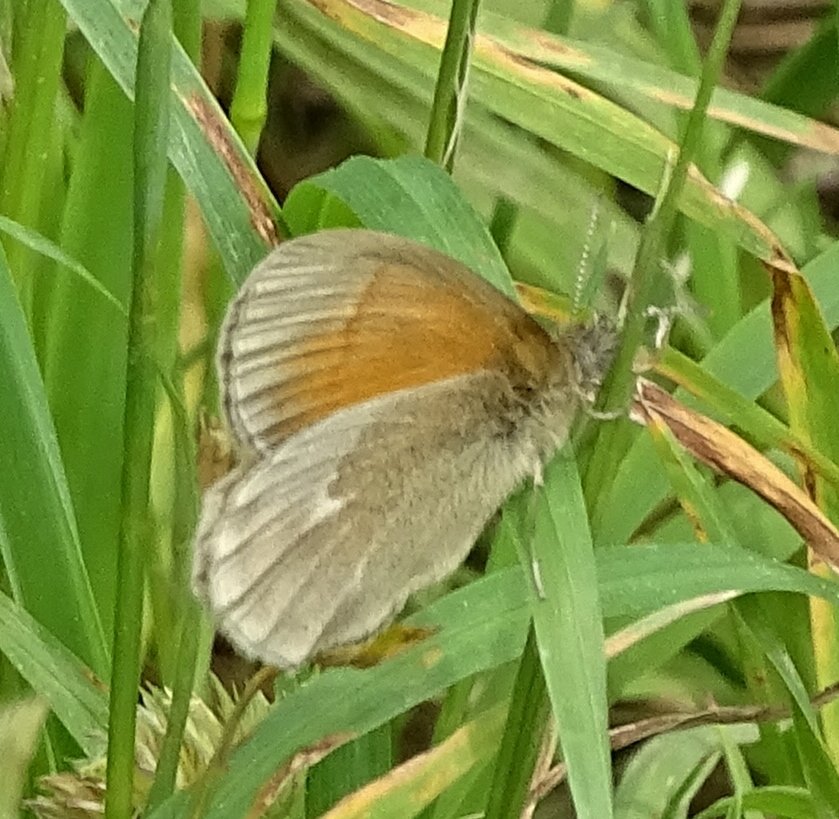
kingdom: Animalia
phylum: Arthropoda
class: Insecta
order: Lepidoptera
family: Nymphalidae
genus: Coenonympha
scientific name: Coenonympha tullia
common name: Large Heath
